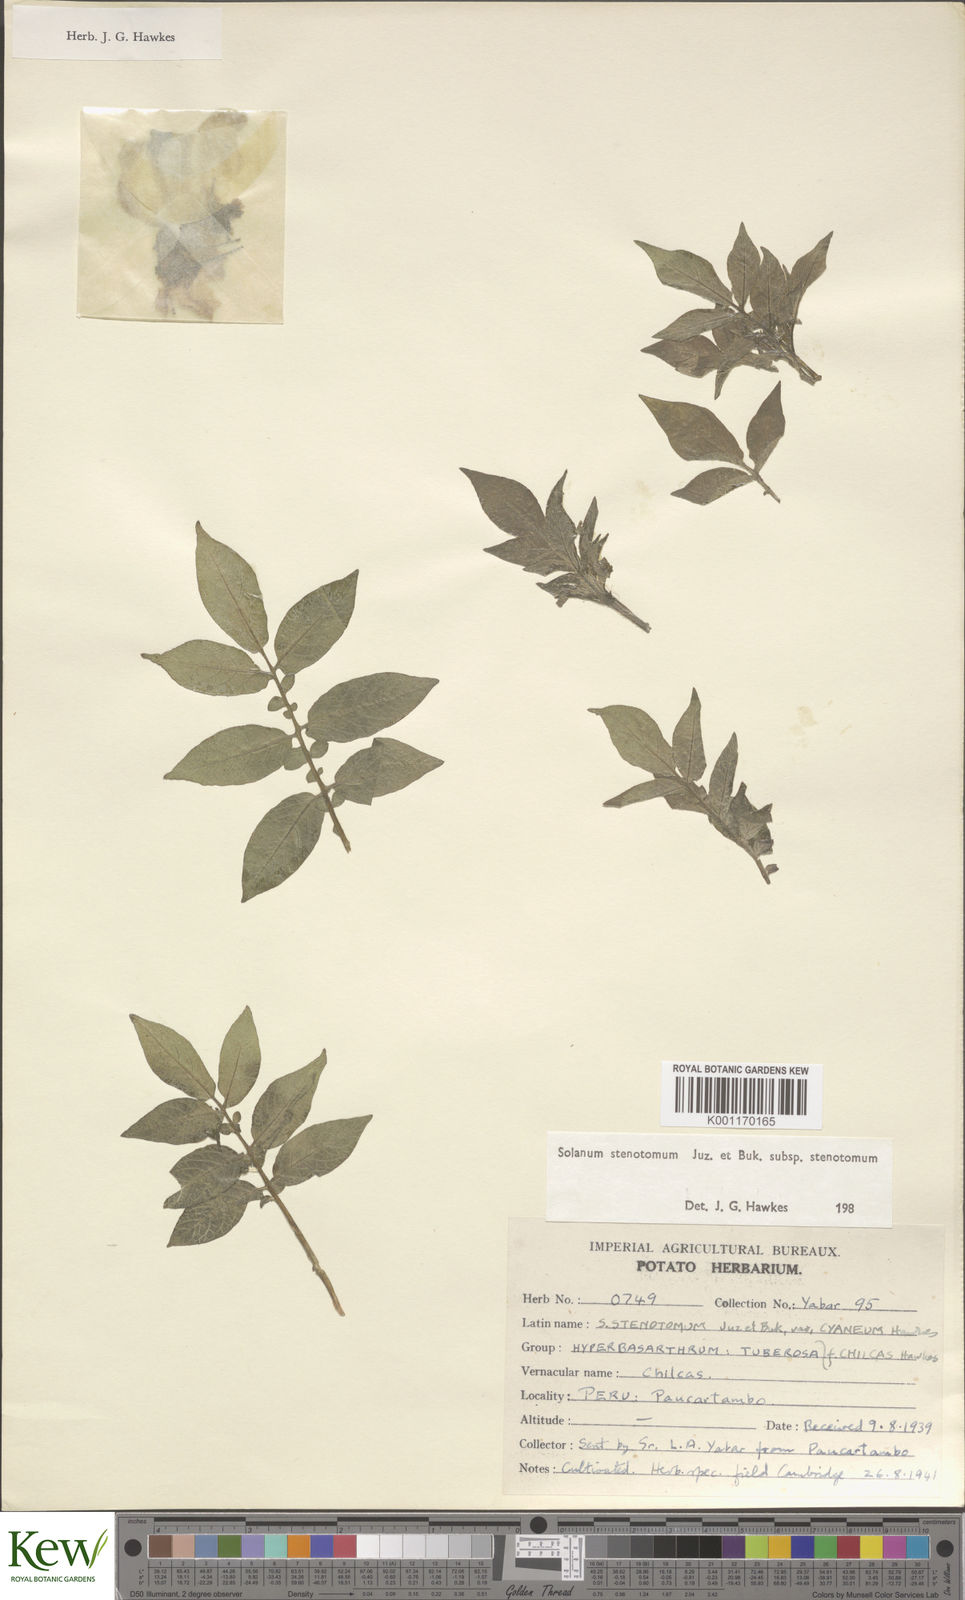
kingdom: Plantae
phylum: Tracheophyta
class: Magnoliopsida
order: Solanales
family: Solanaceae
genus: Solanum
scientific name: Solanum tuberosum
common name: Potato
